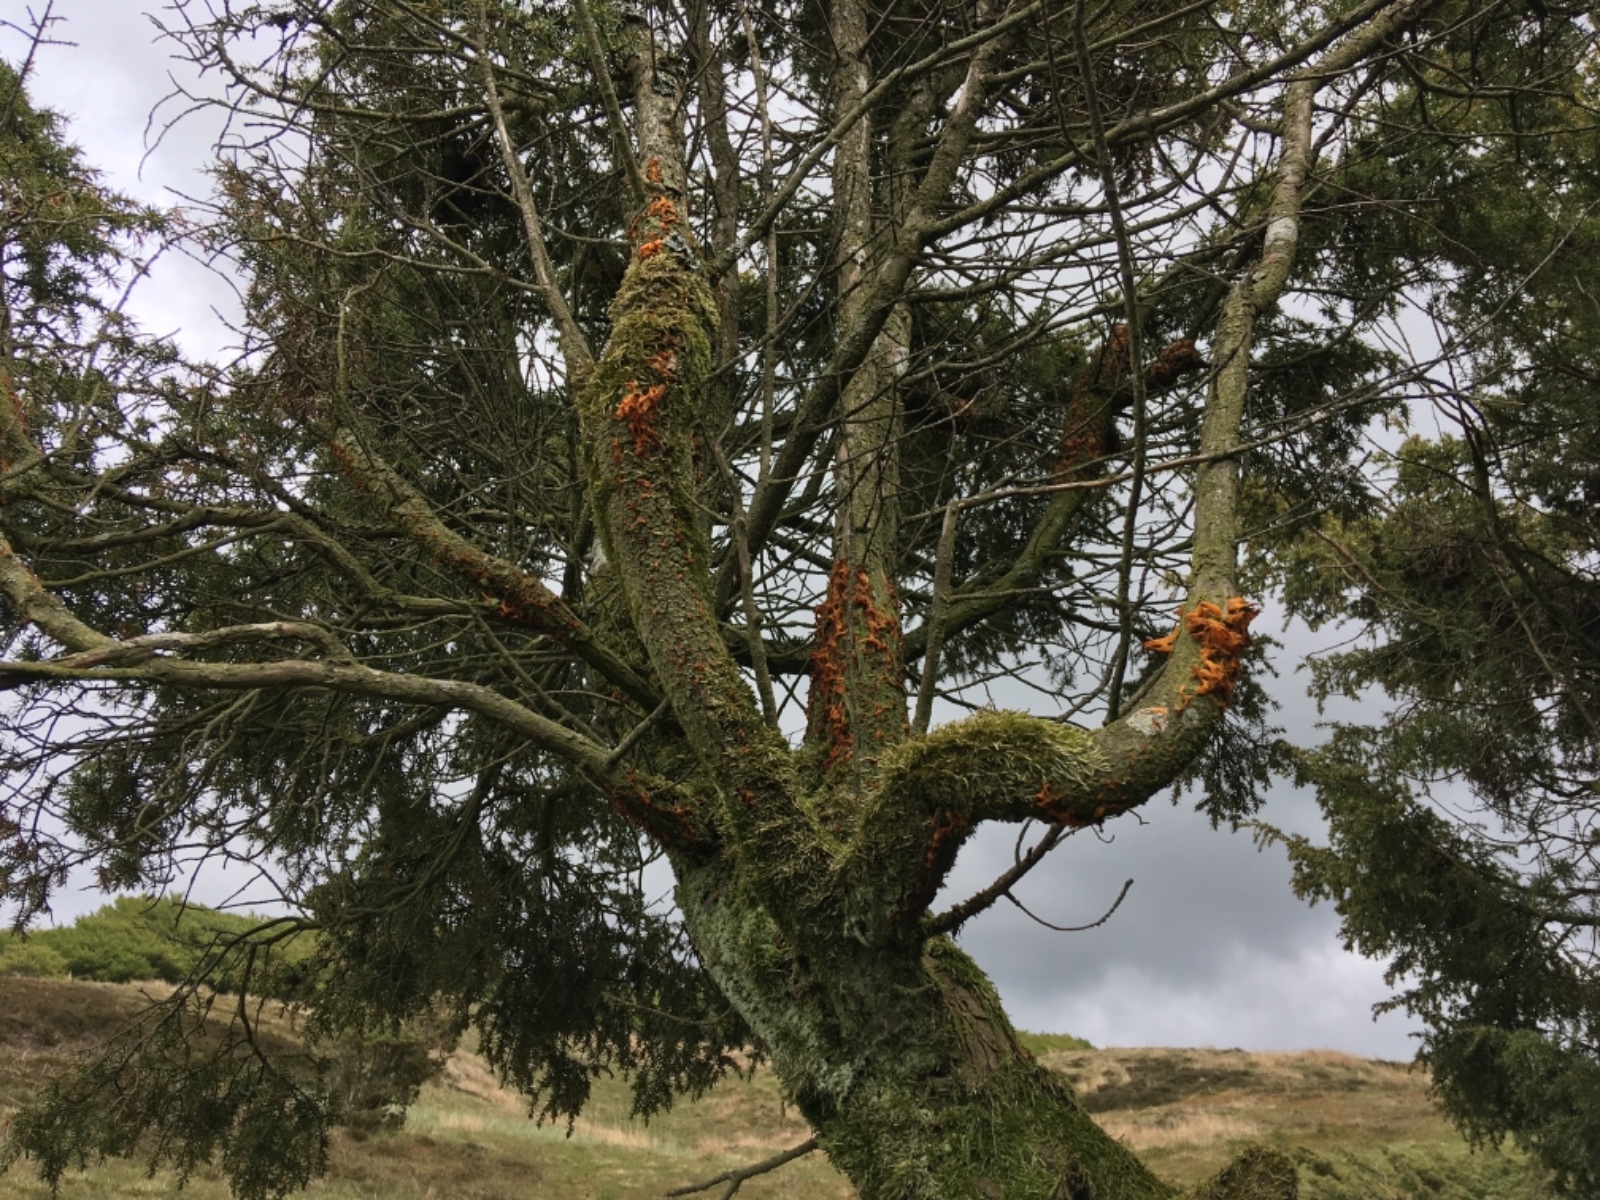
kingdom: Fungi
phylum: Basidiomycota
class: Pucciniomycetes
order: Pucciniales
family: Gymnosporangiaceae
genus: Gymnosporangium
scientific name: Gymnosporangium clavariiforme
